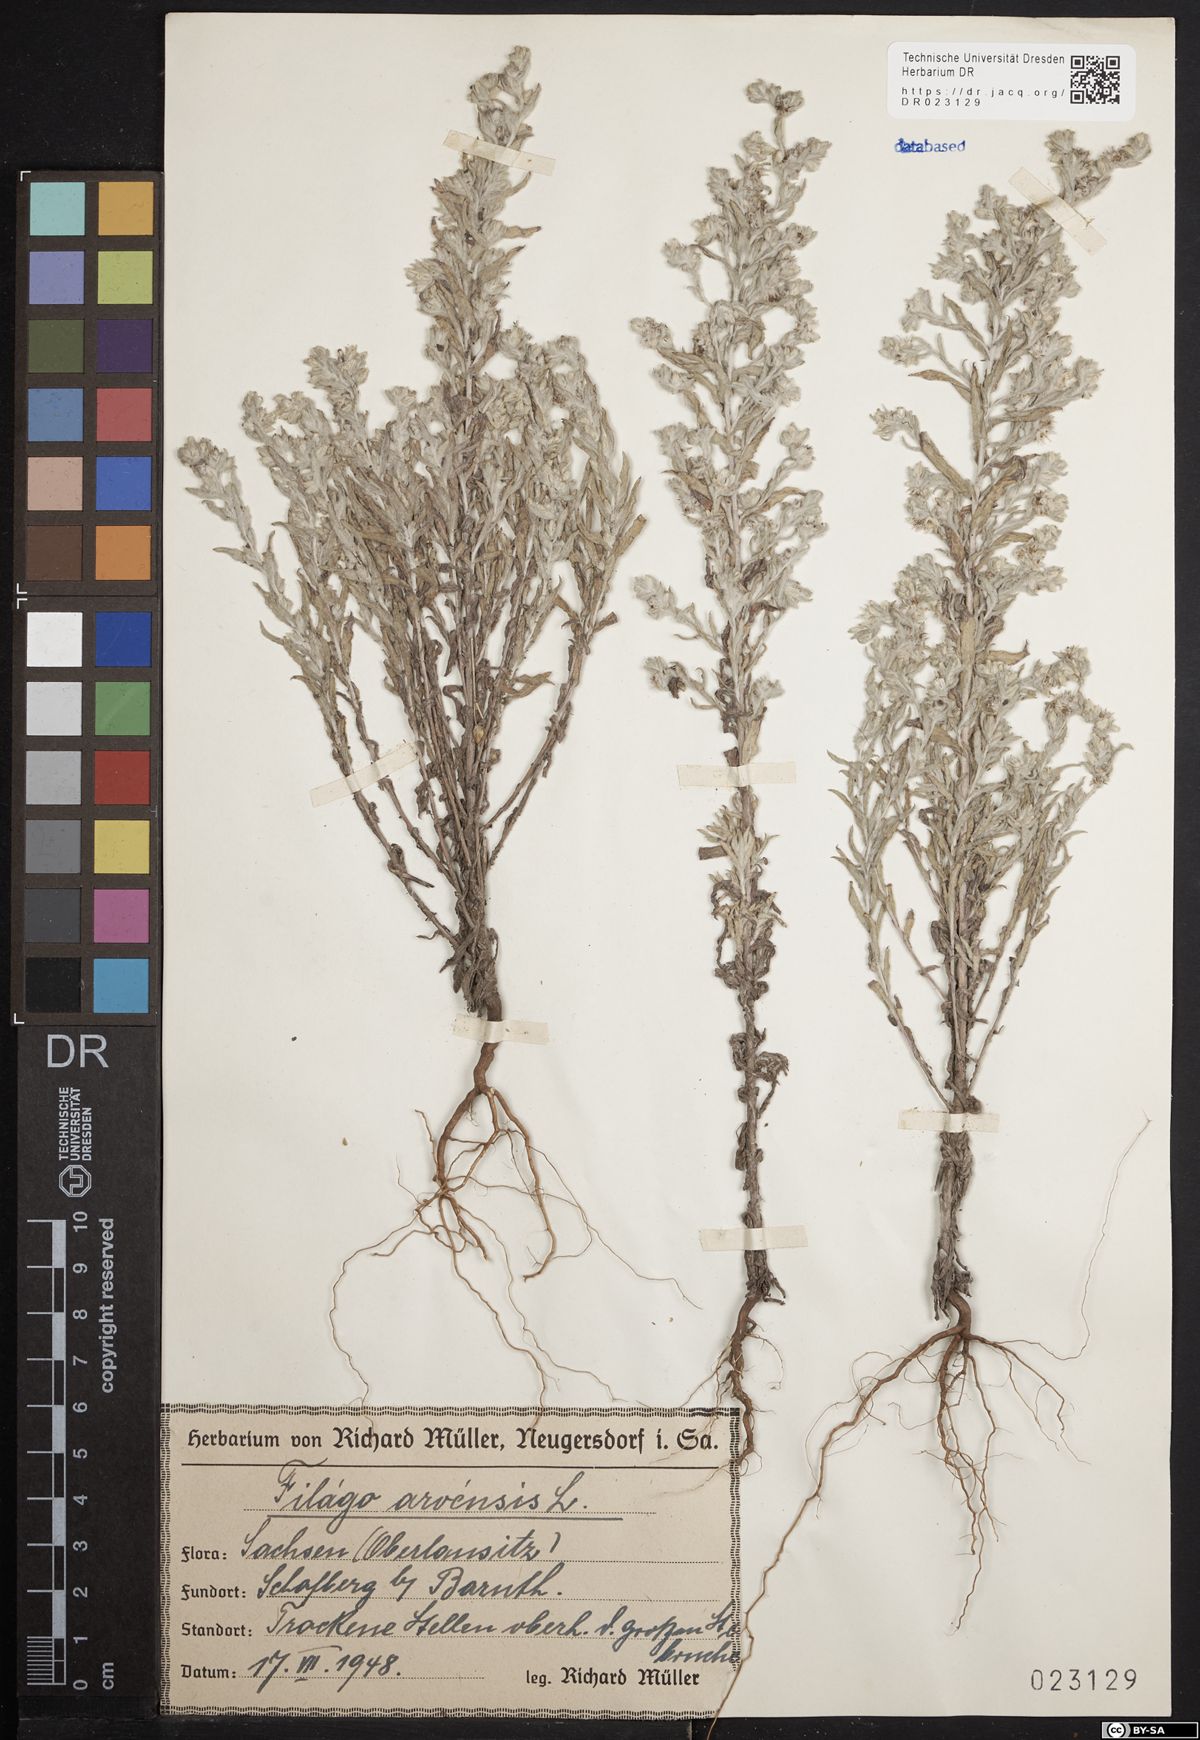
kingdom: Plantae
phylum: Tracheophyta
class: Magnoliopsida
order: Asterales
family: Asteraceae
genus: Filago
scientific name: Filago arvensis
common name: Field cudweed
